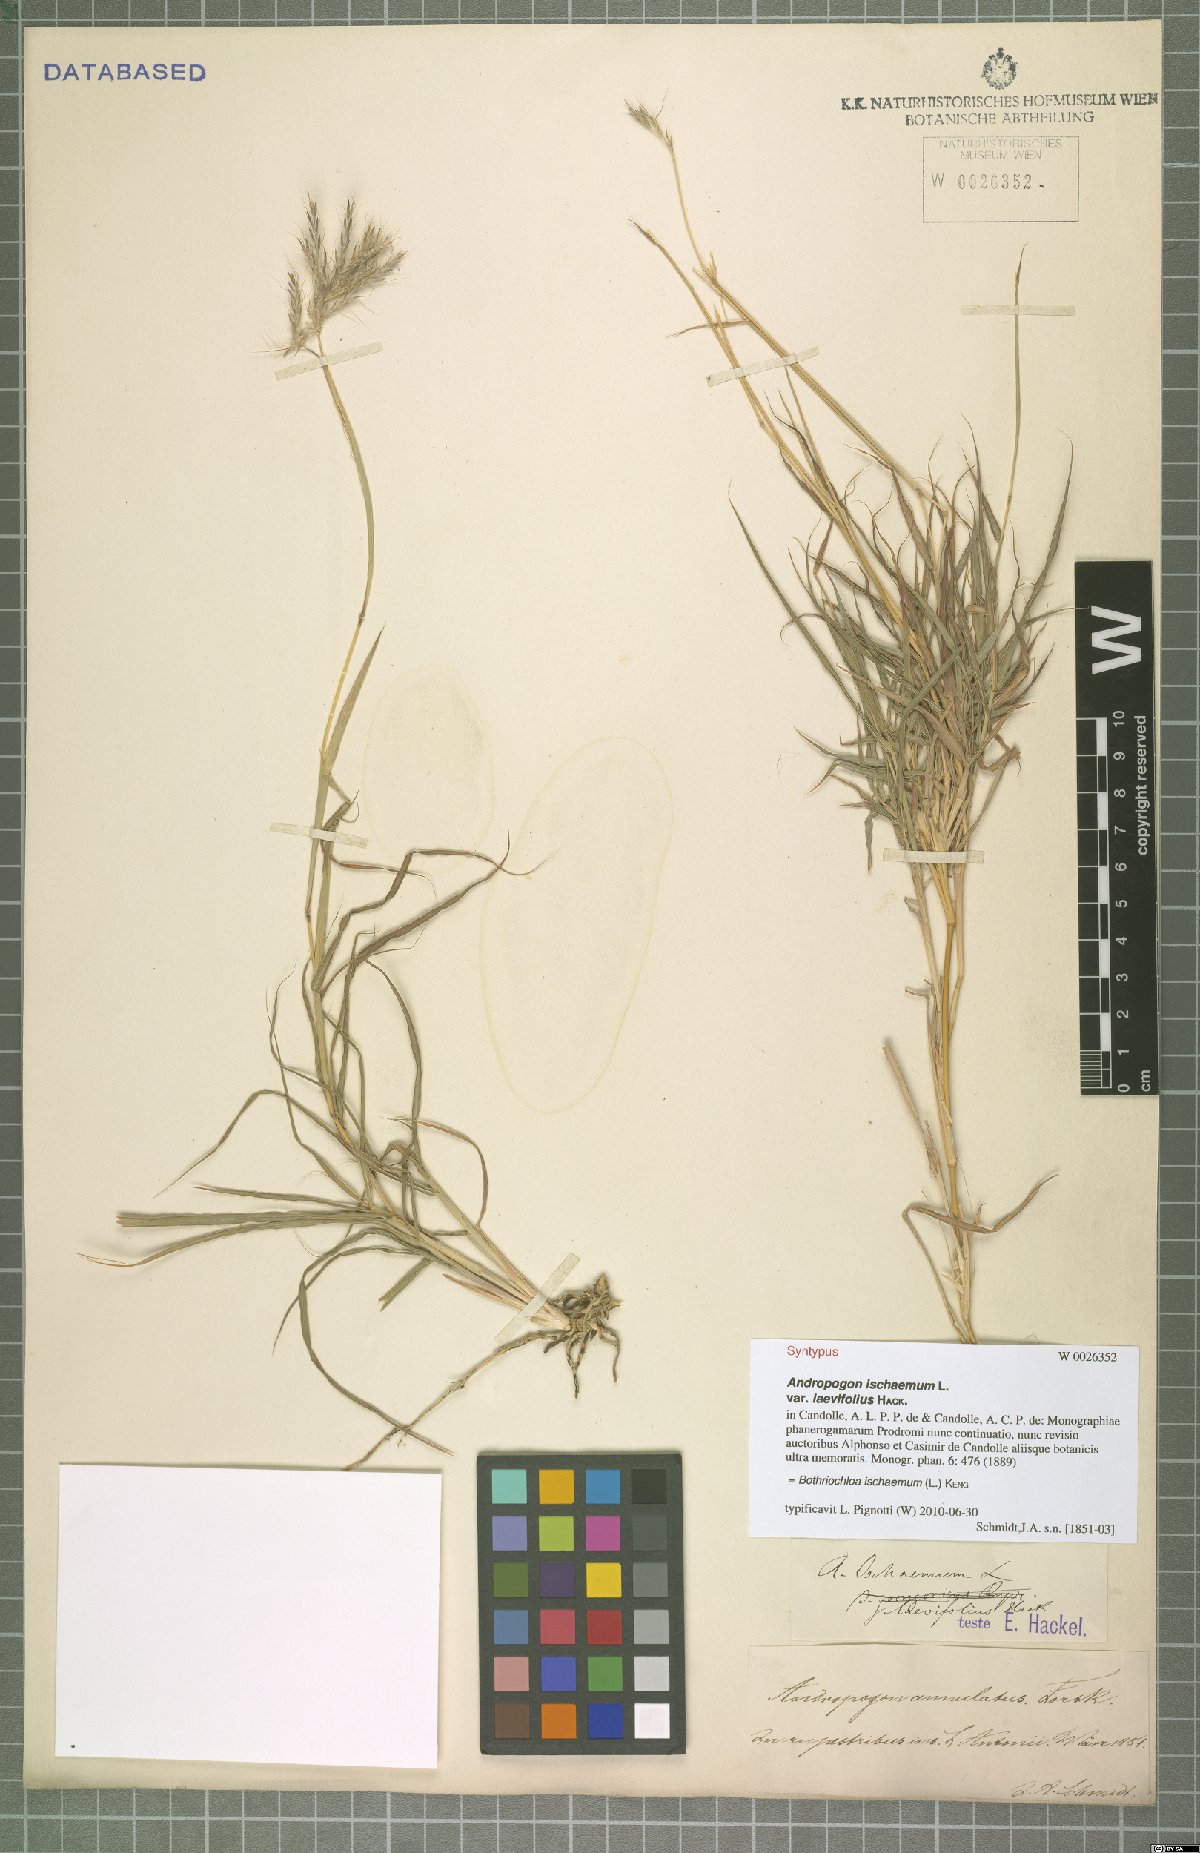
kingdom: Plantae
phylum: Tracheophyta
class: Liliopsida
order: Poales
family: Poaceae
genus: Bothriochloa
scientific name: Bothriochloa ischaemum
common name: Yellow bluestem
